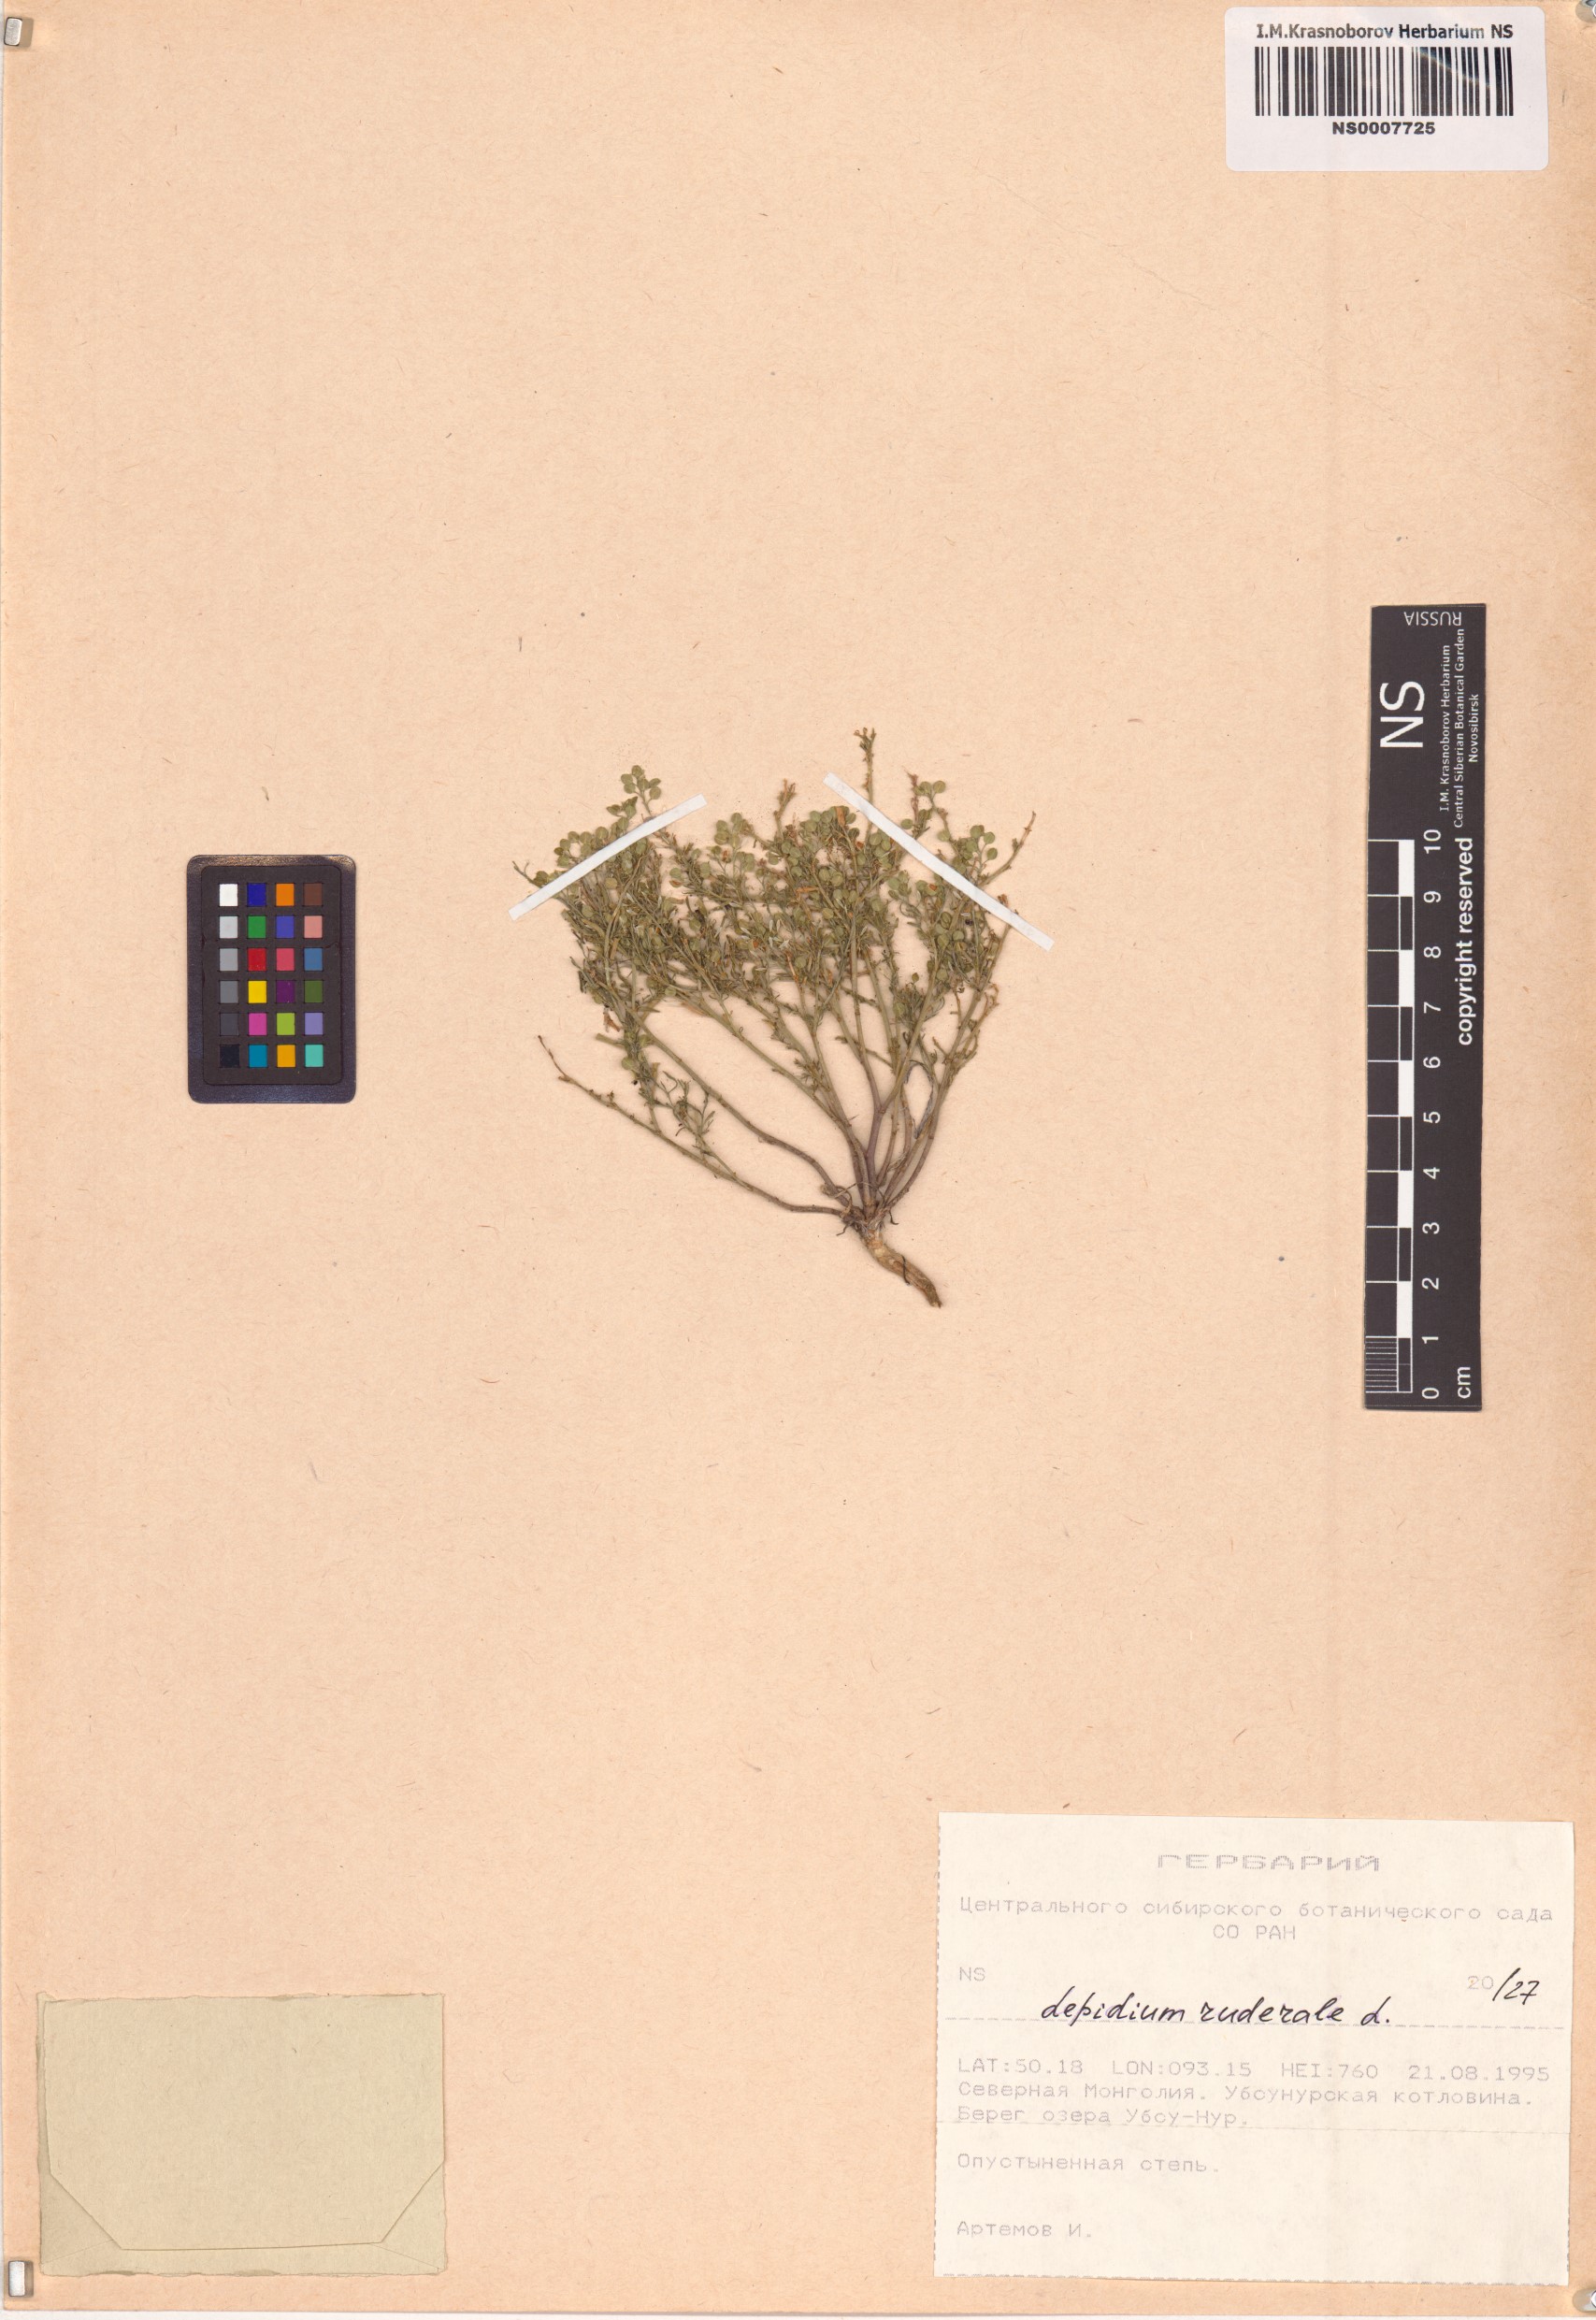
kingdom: Plantae
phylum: Tracheophyta
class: Magnoliopsida
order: Brassicales
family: Brassicaceae
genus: Lepidium
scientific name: Lepidium ruderale
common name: Narrow-leaved pepperwort
